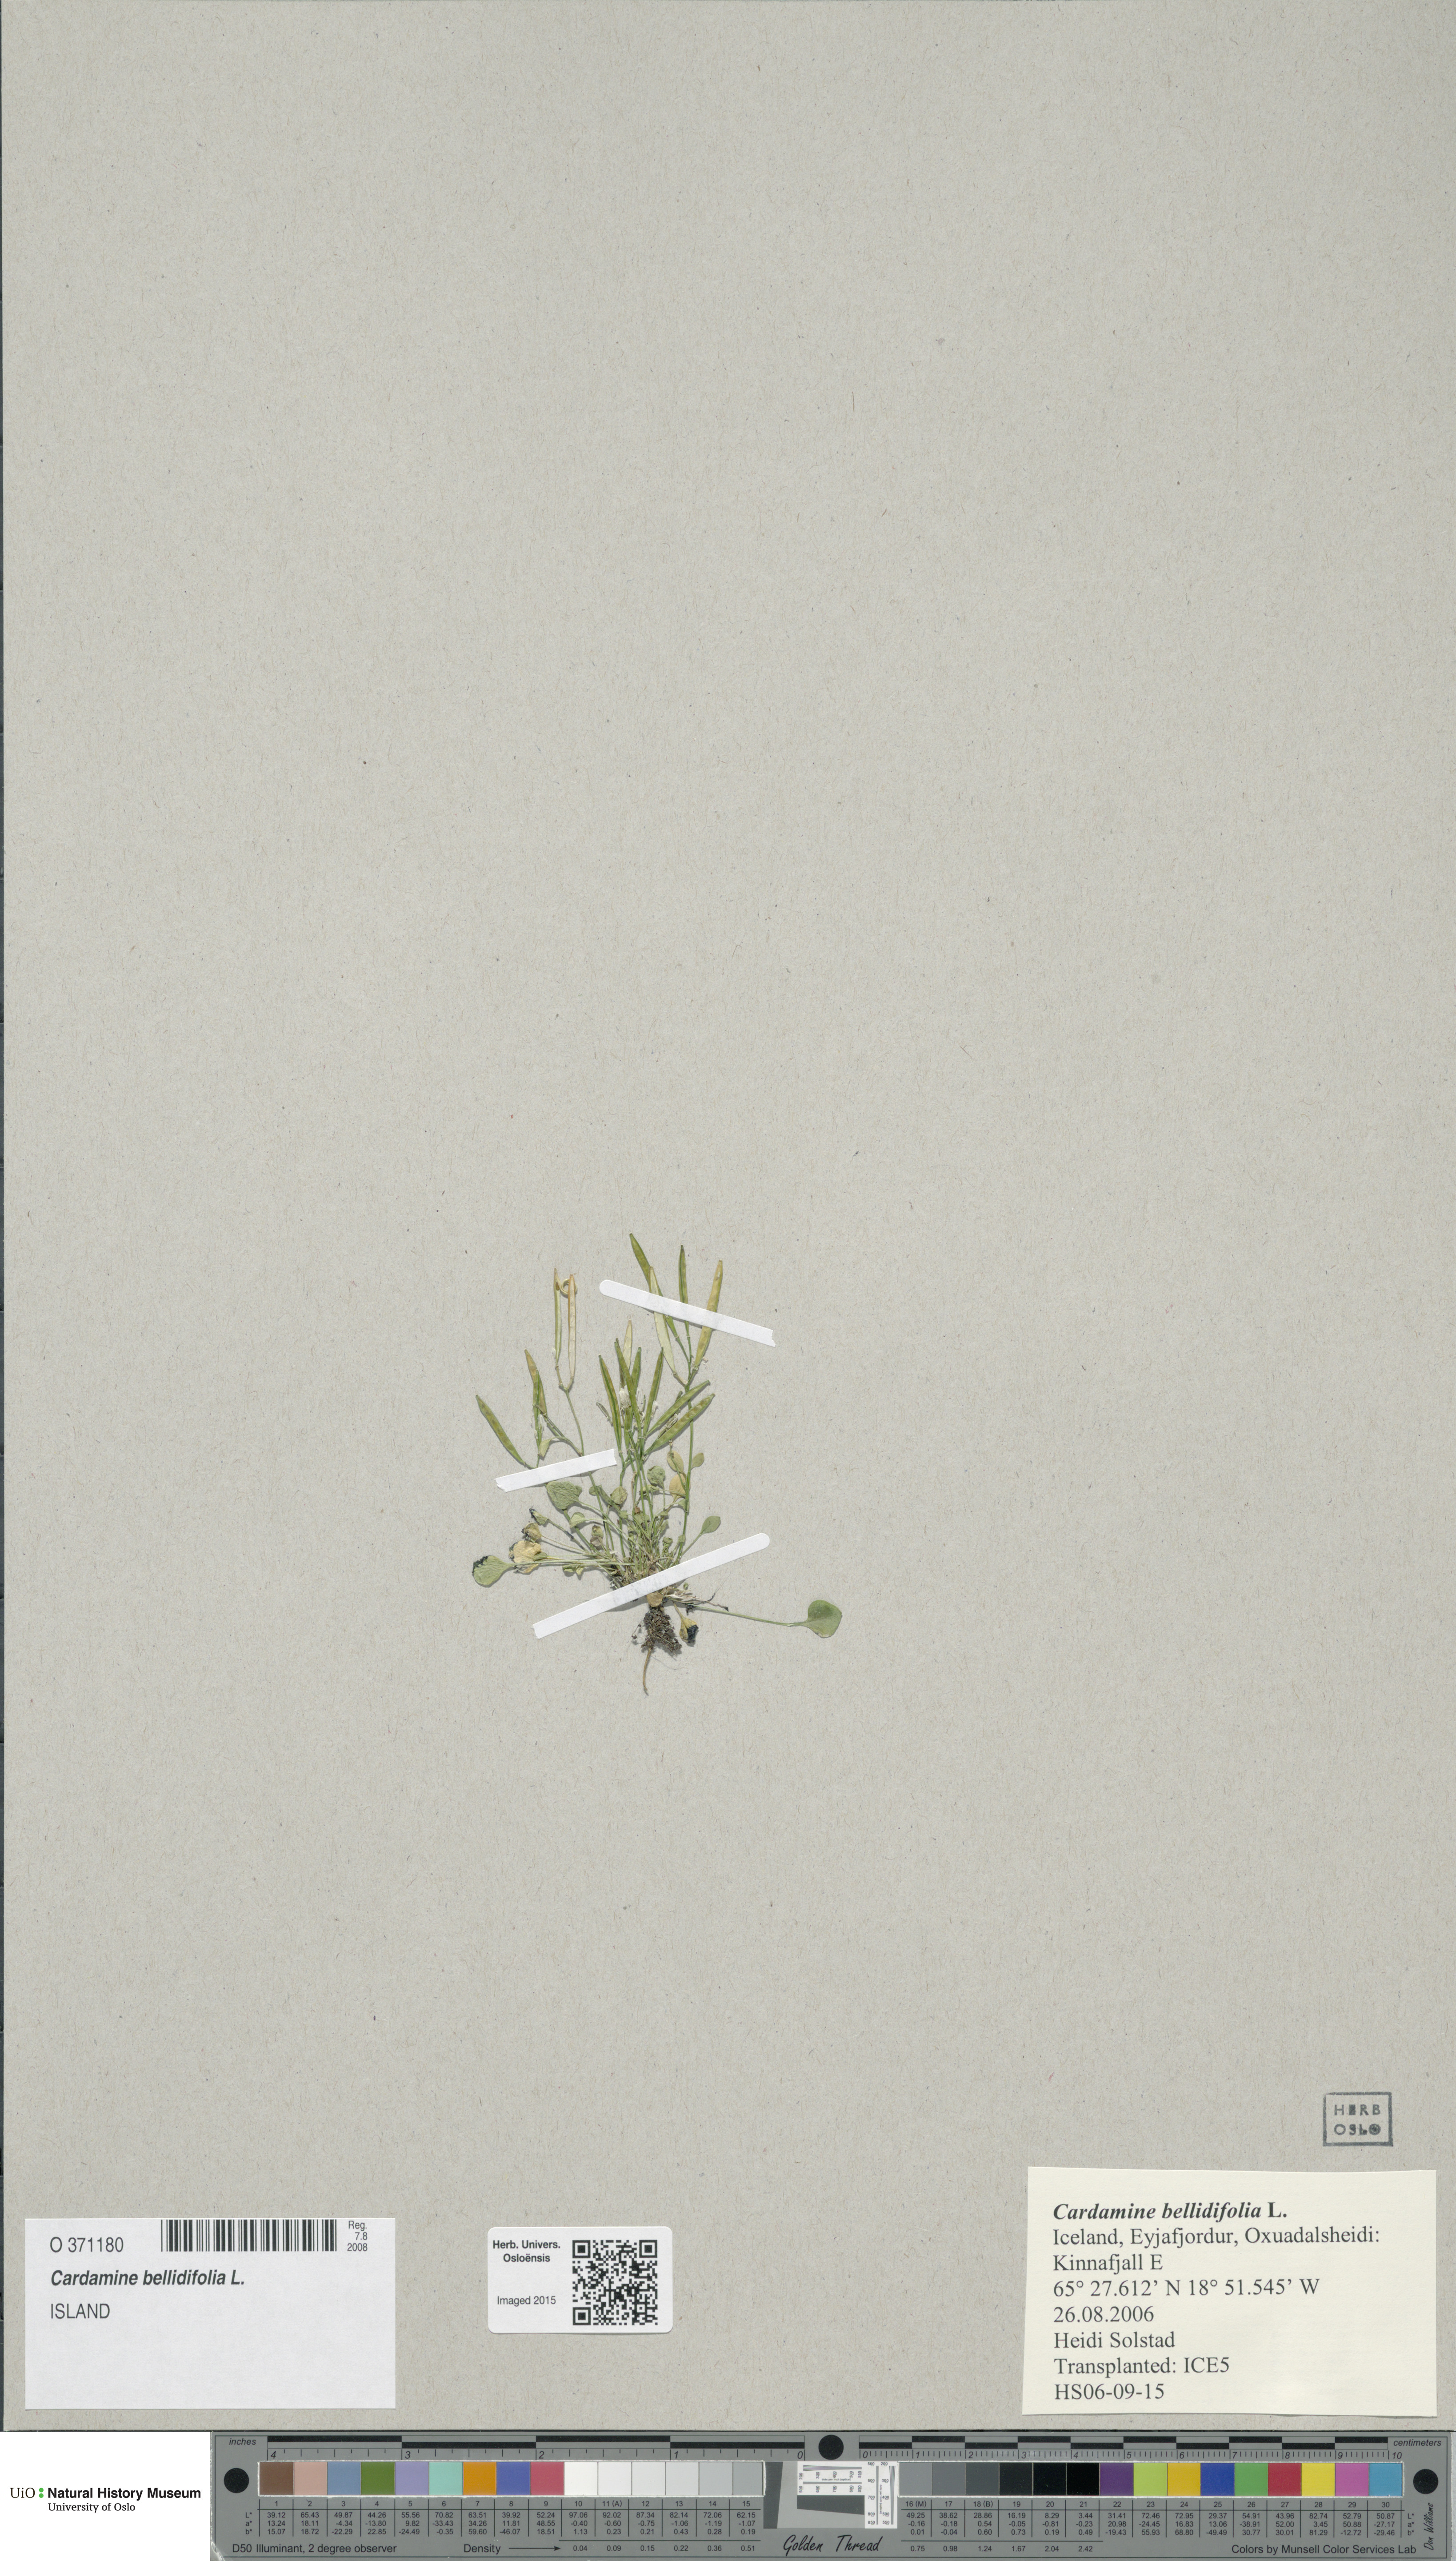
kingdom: Plantae
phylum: Tracheophyta
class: Magnoliopsida
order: Brassicales
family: Brassicaceae
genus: Cardamine
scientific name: Cardamine bellidifolia
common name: Alpine bittercress
